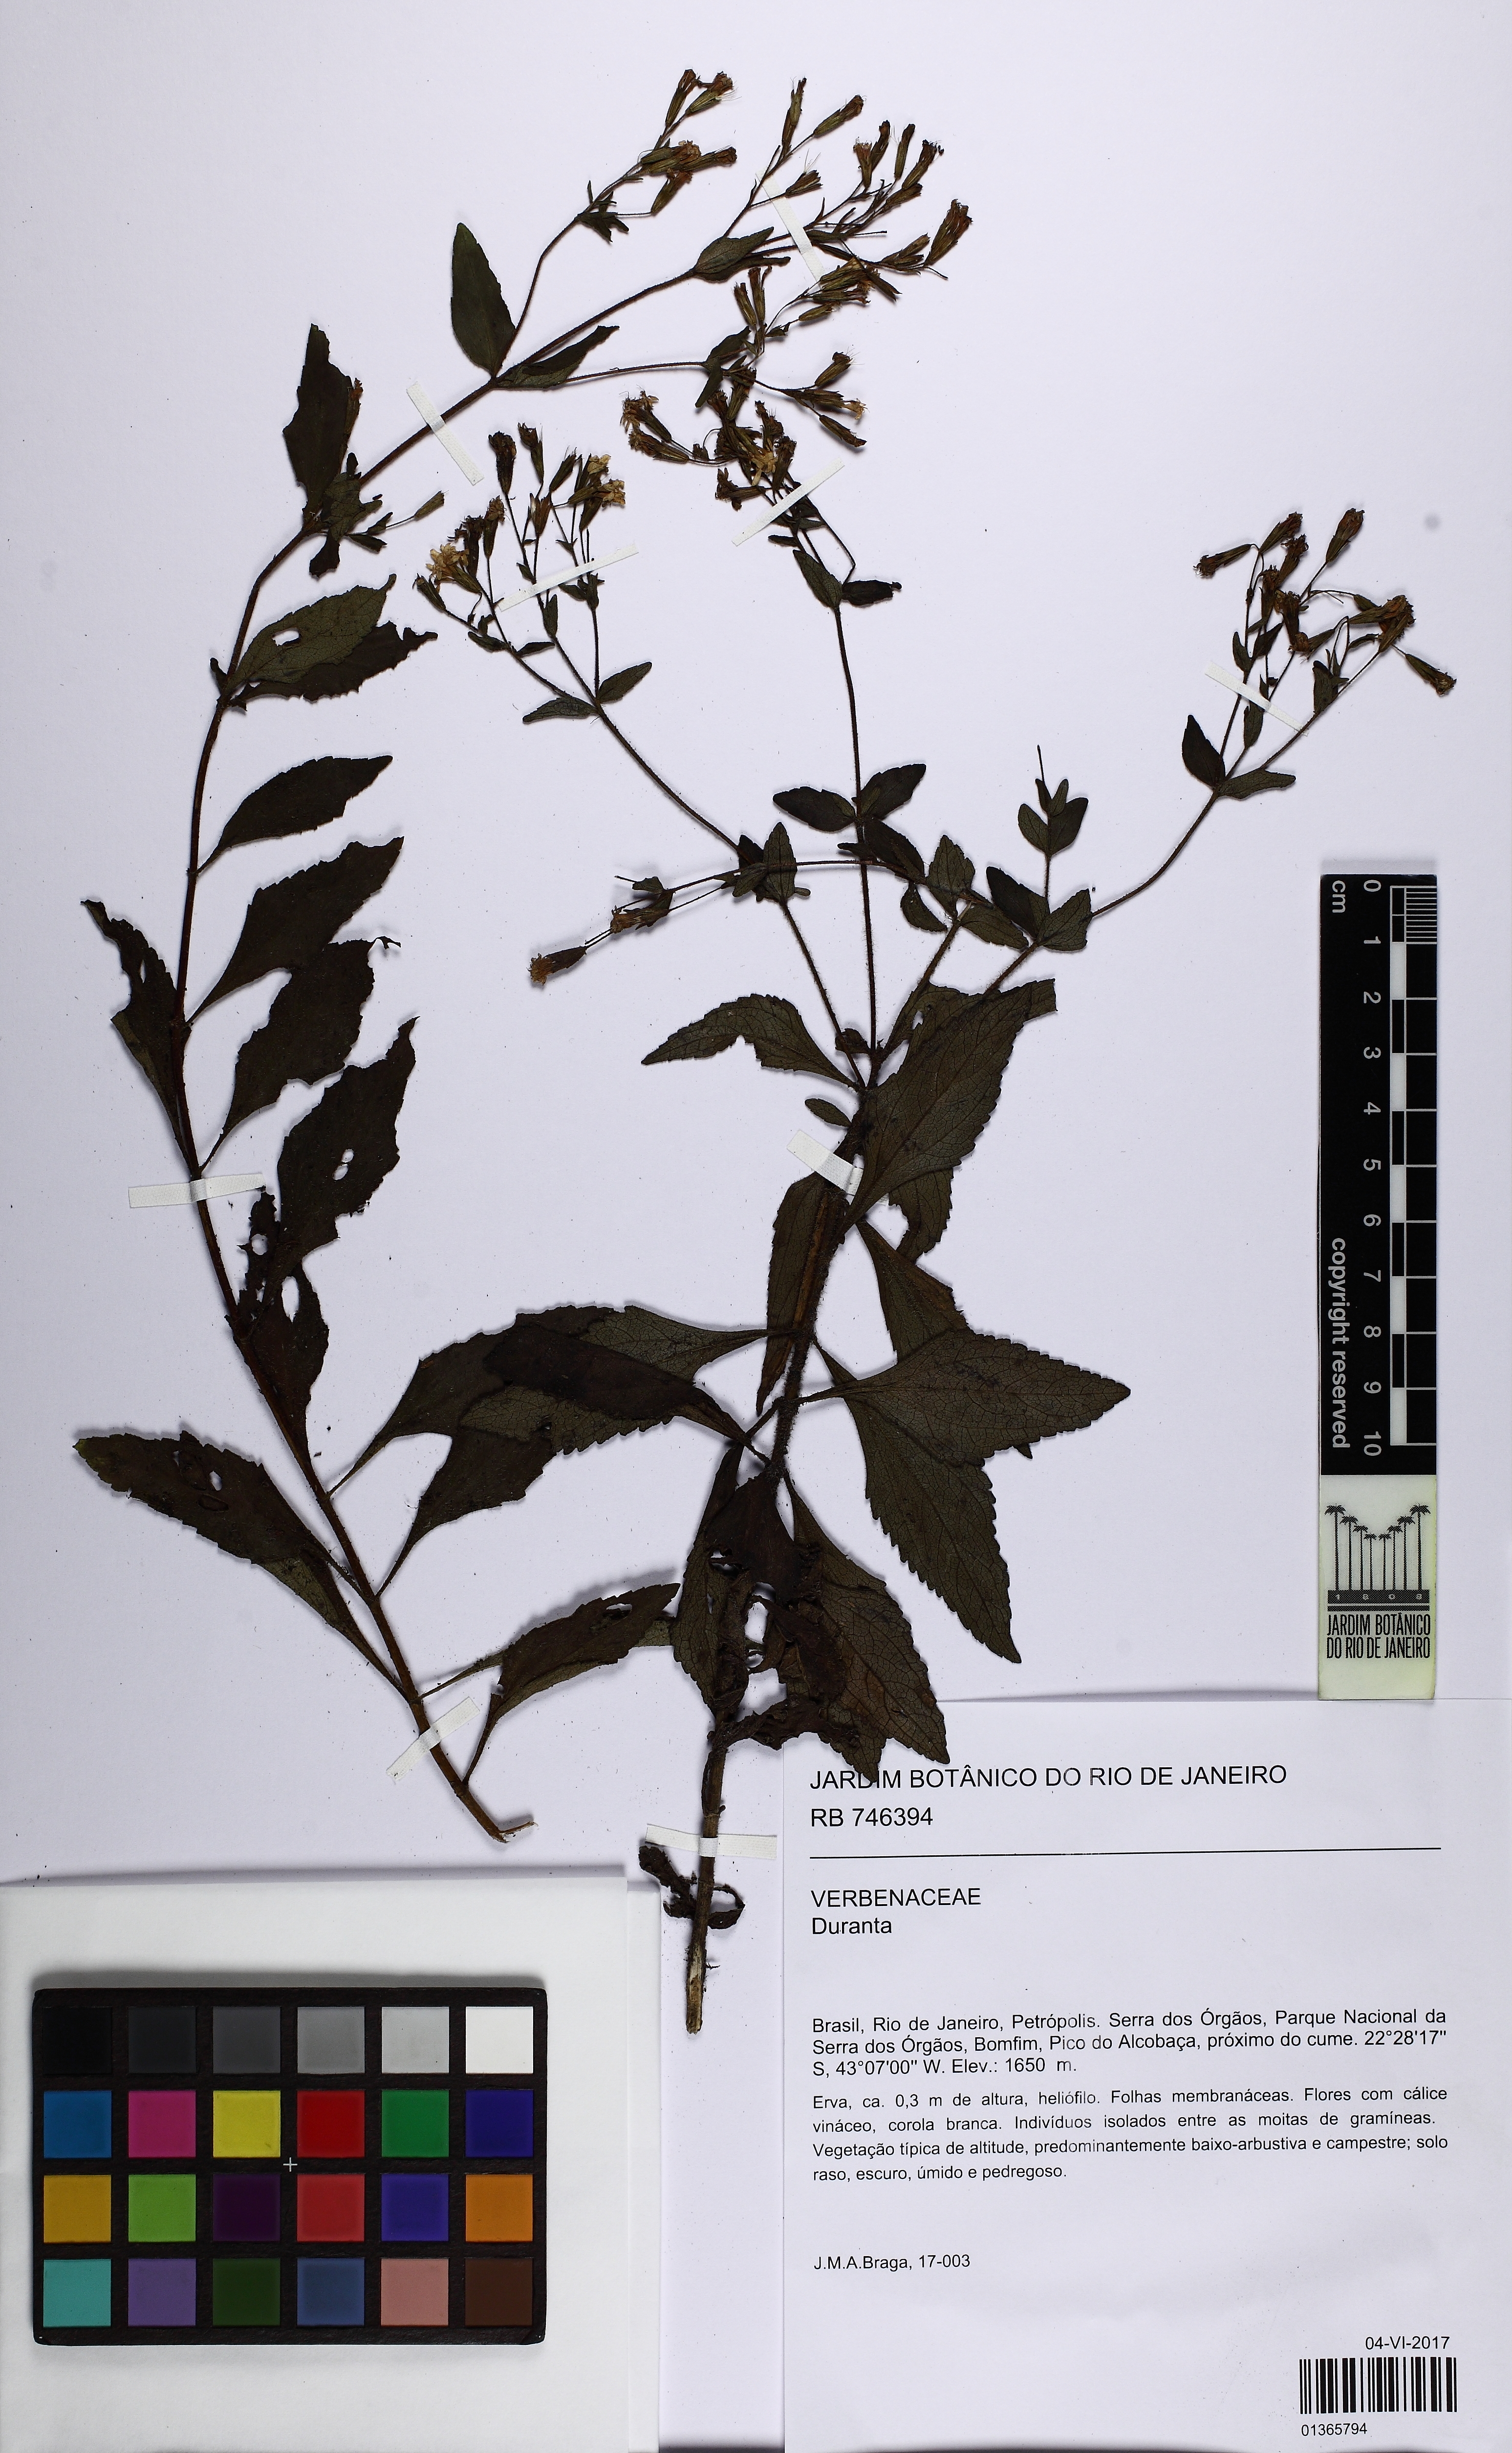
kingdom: Plantae
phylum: Tracheophyta
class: Magnoliopsida
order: Lamiales
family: Verbenaceae
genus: Duranta
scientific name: Duranta
